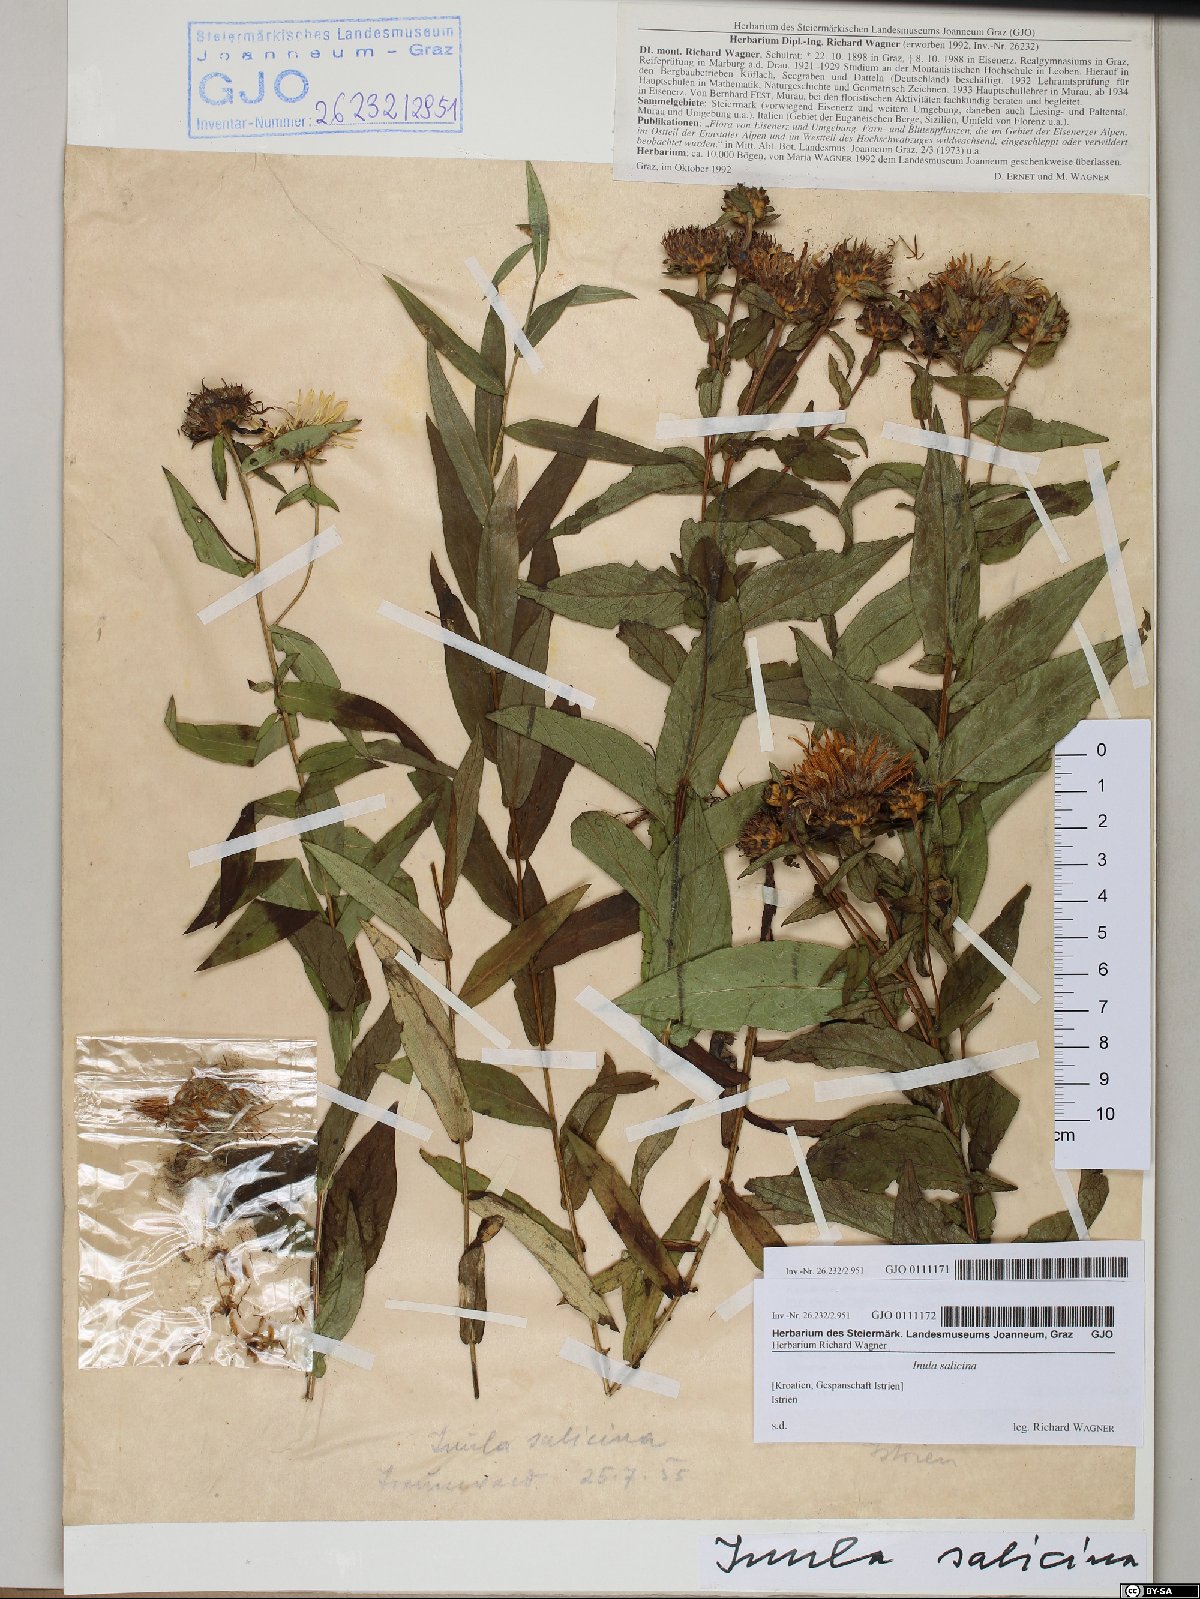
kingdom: Plantae
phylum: Tracheophyta
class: Magnoliopsida
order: Asterales
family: Asteraceae
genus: Pentanema
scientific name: Pentanema salicinum
